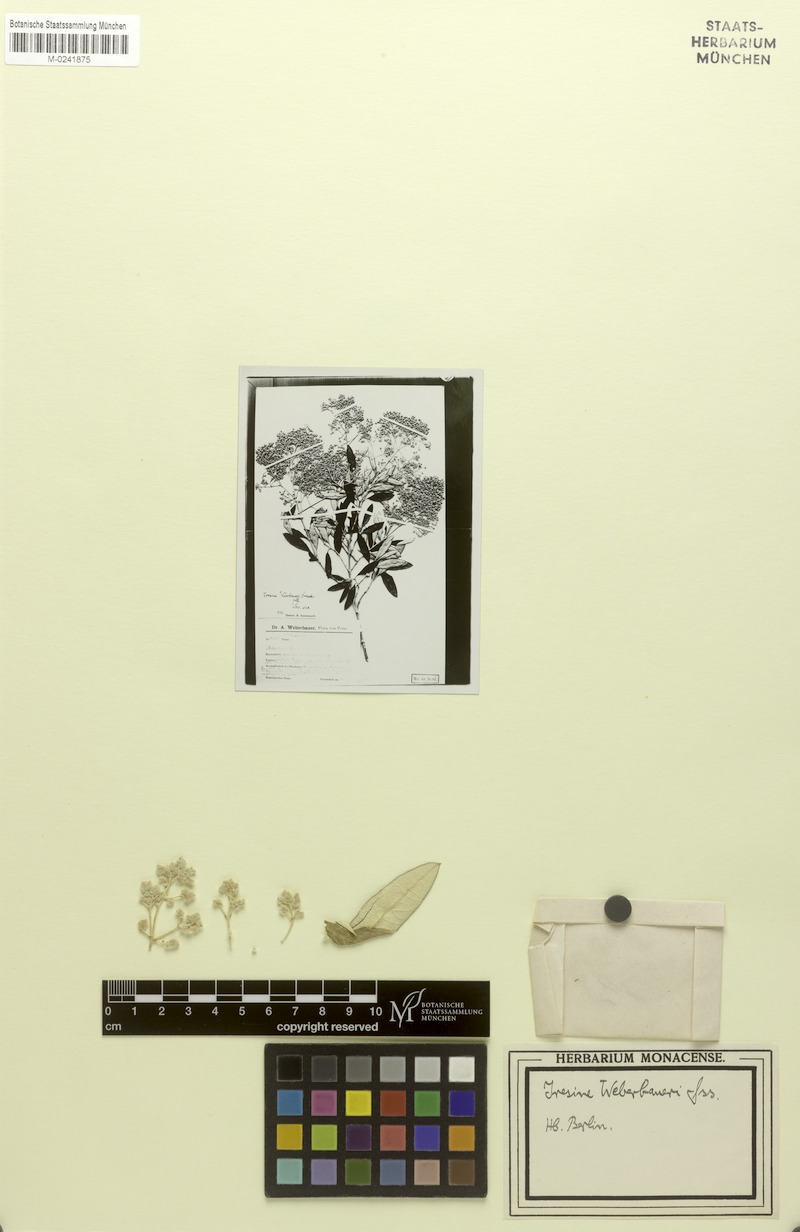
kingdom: Plantae
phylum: Tracheophyta
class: Magnoliopsida
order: Caryophyllales
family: Amaranthaceae
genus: Pedersenia
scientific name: Pedersenia weberbaueri
